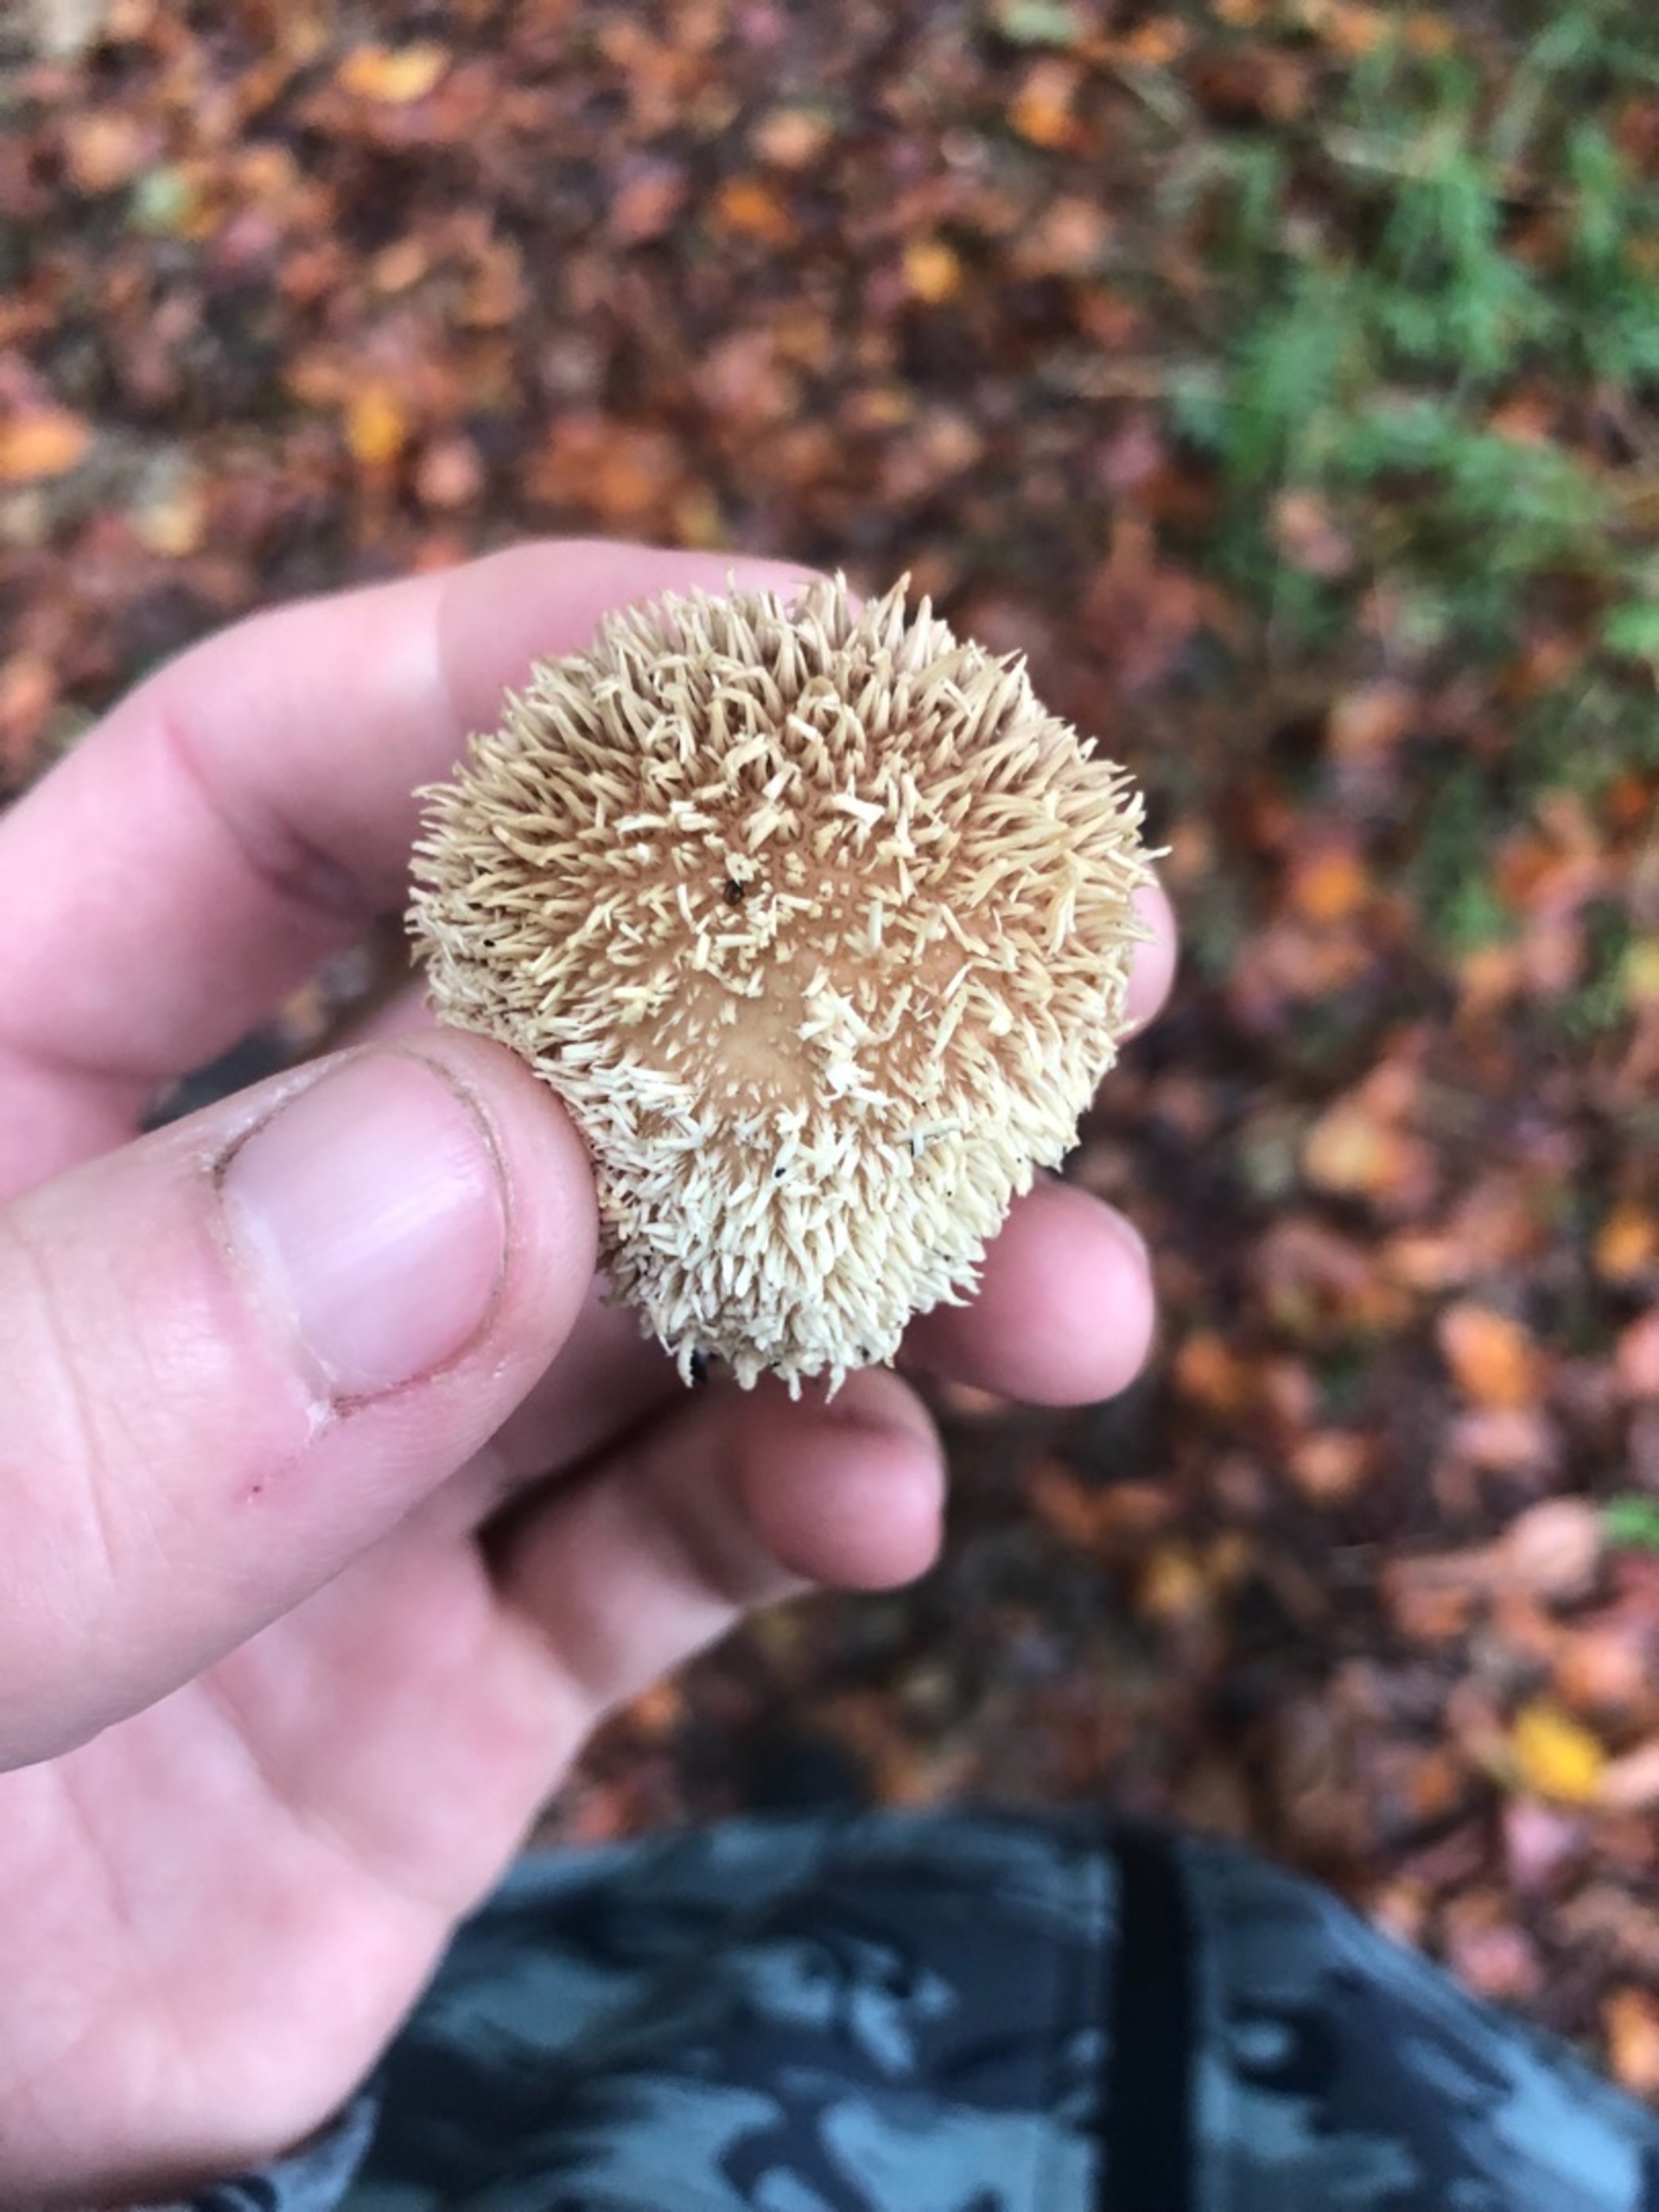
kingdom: Fungi
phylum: Basidiomycota
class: Agaricomycetes
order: Agaricales
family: Lycoperdaceae
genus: Lycoperdon
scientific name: Lycoperdon echinatum
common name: Pindsvine-støvbold
